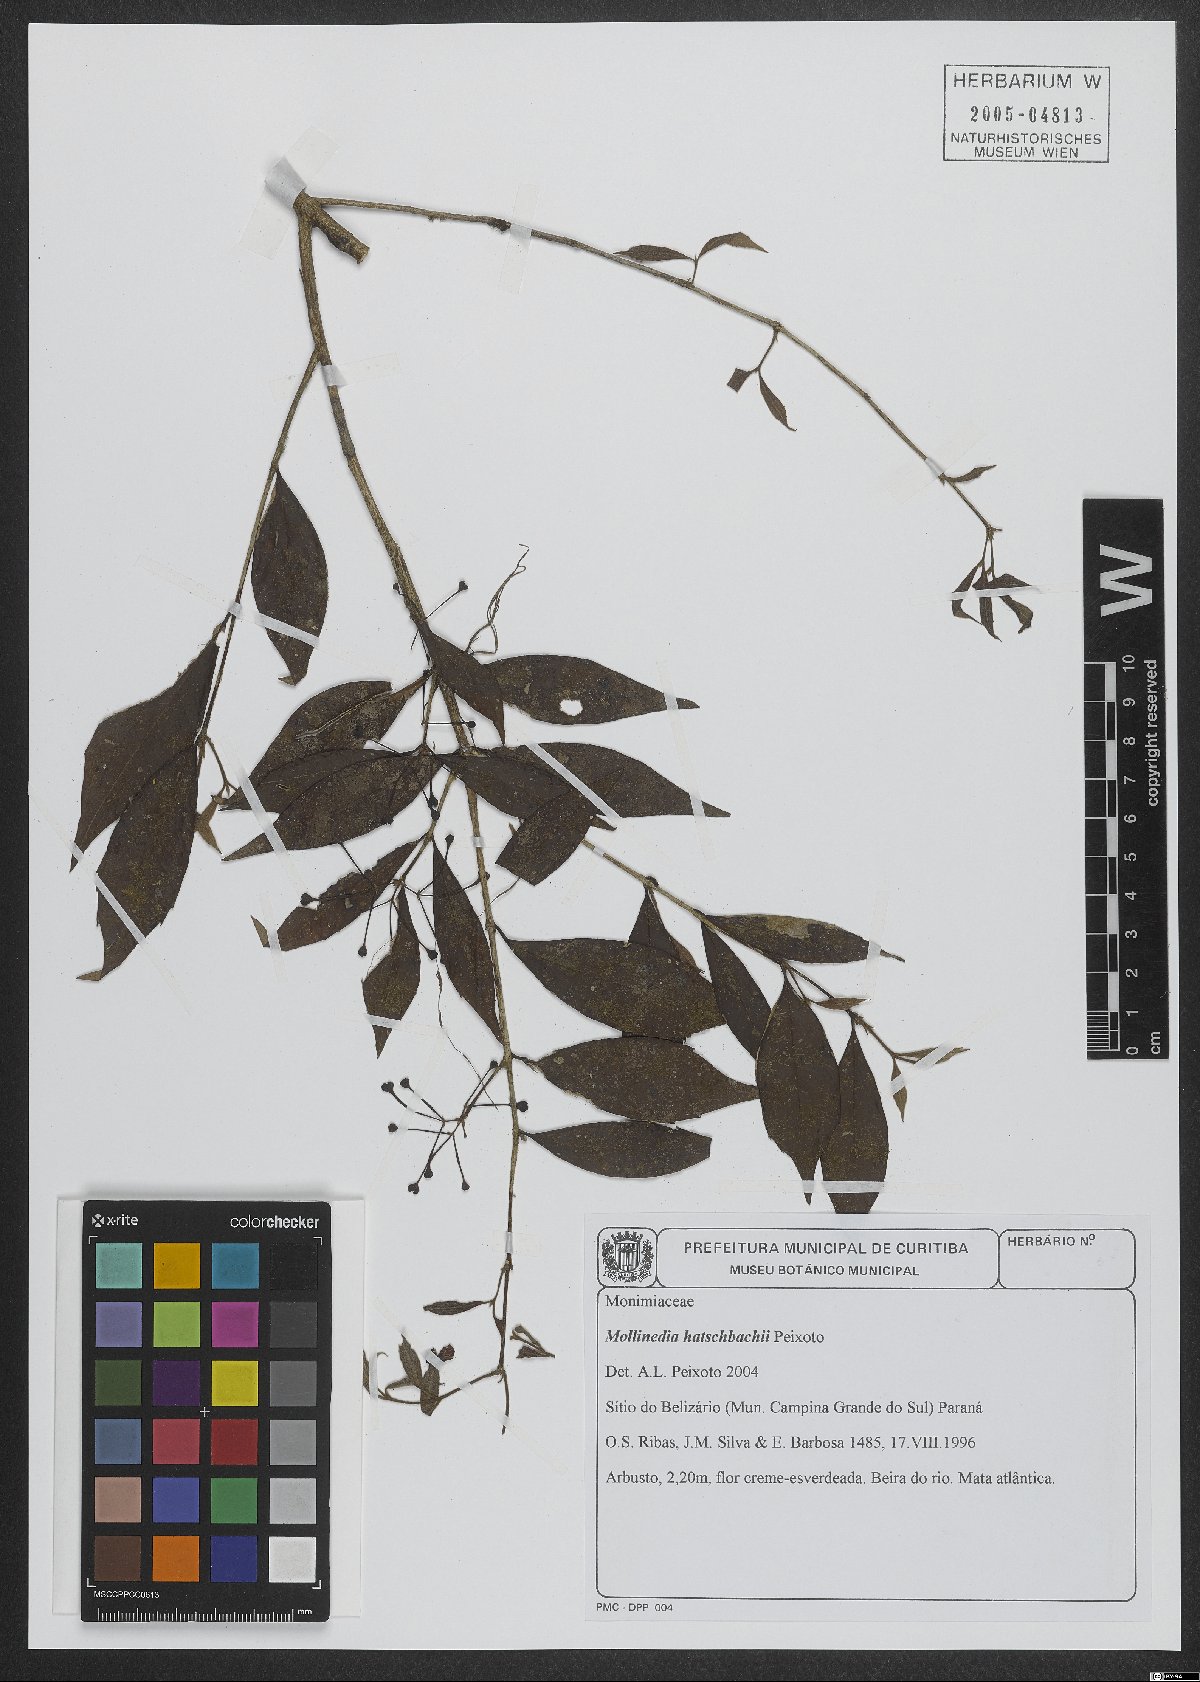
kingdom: Plantae
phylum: Tracheophyta
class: Magnoliopsida
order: Laurales
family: Monimiaceae
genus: Mollinedia
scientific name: Mollinedia hatschbachii
